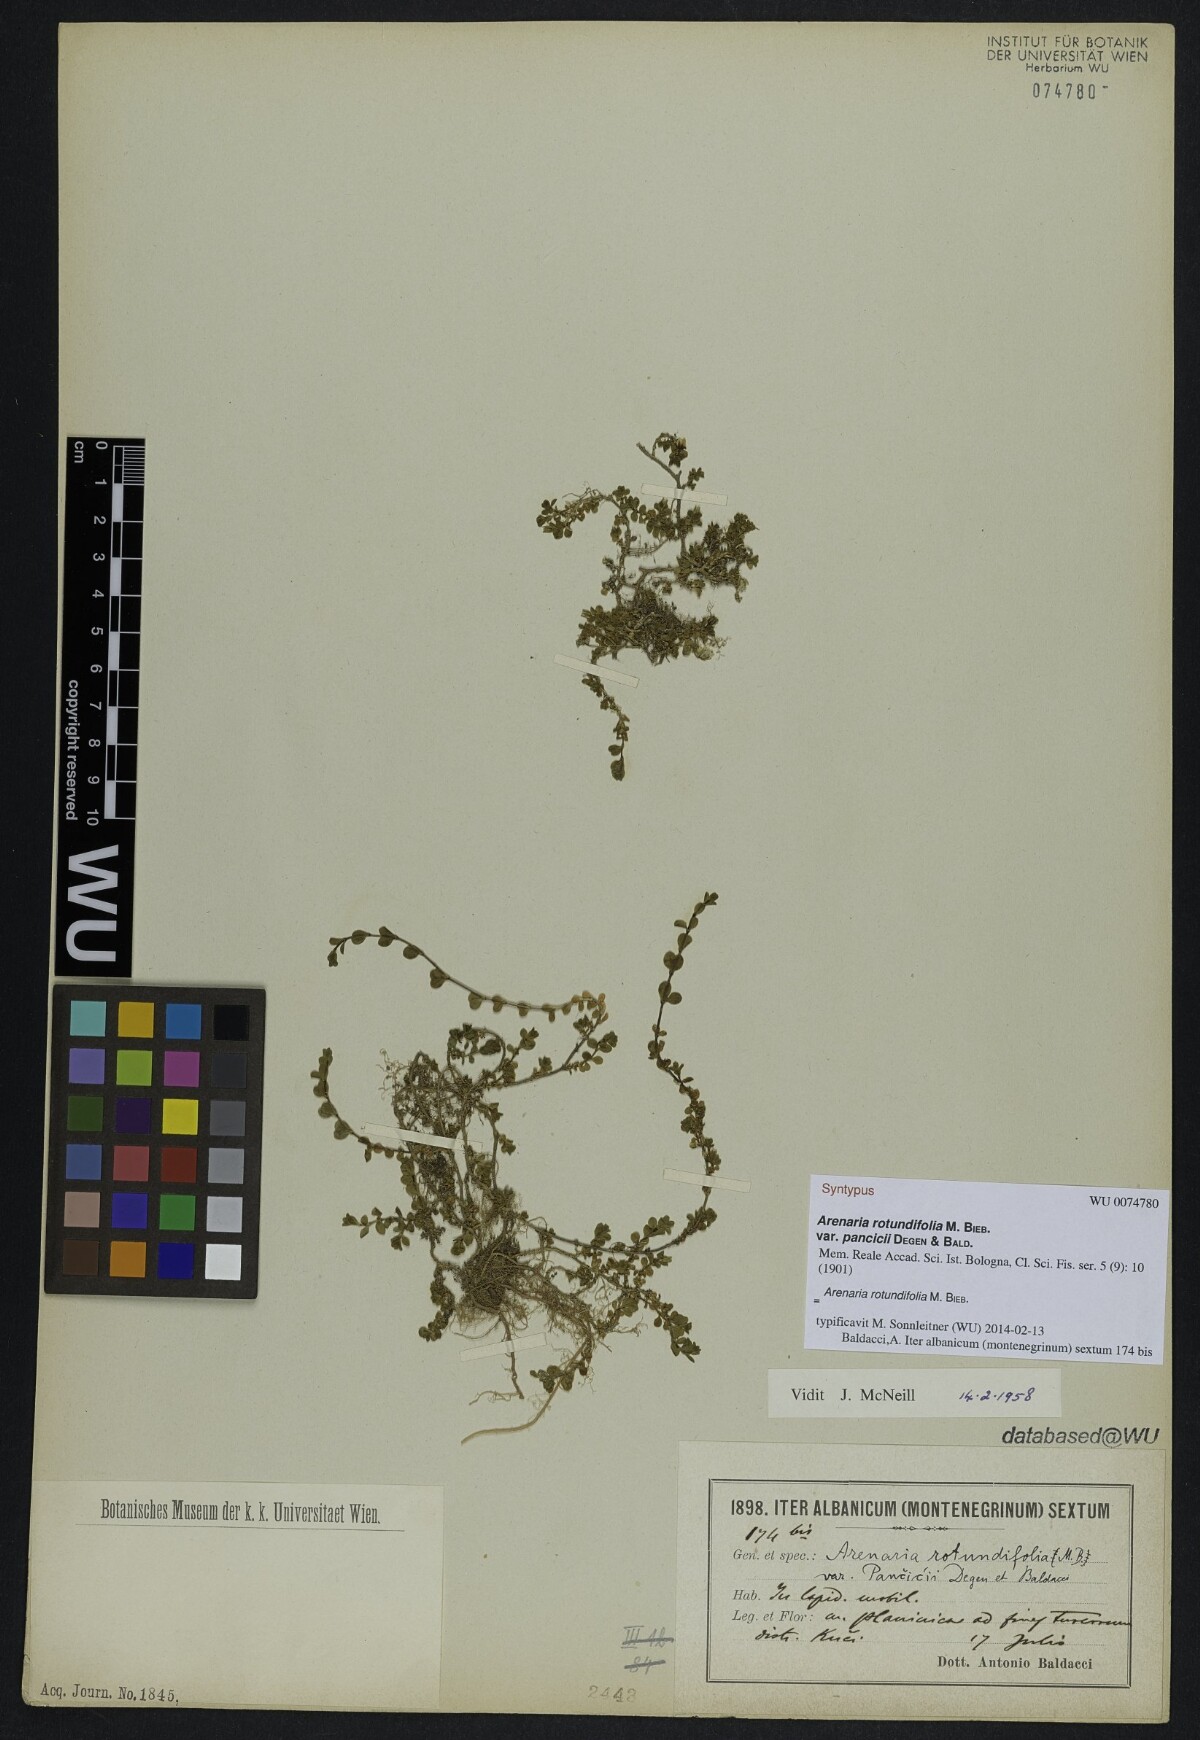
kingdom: Plantae
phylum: Tracheophyta
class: Magnoliopsida
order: Caryophyllales
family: Caryophyllaceae
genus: Arenaria
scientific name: Arenaria rotundifolia
